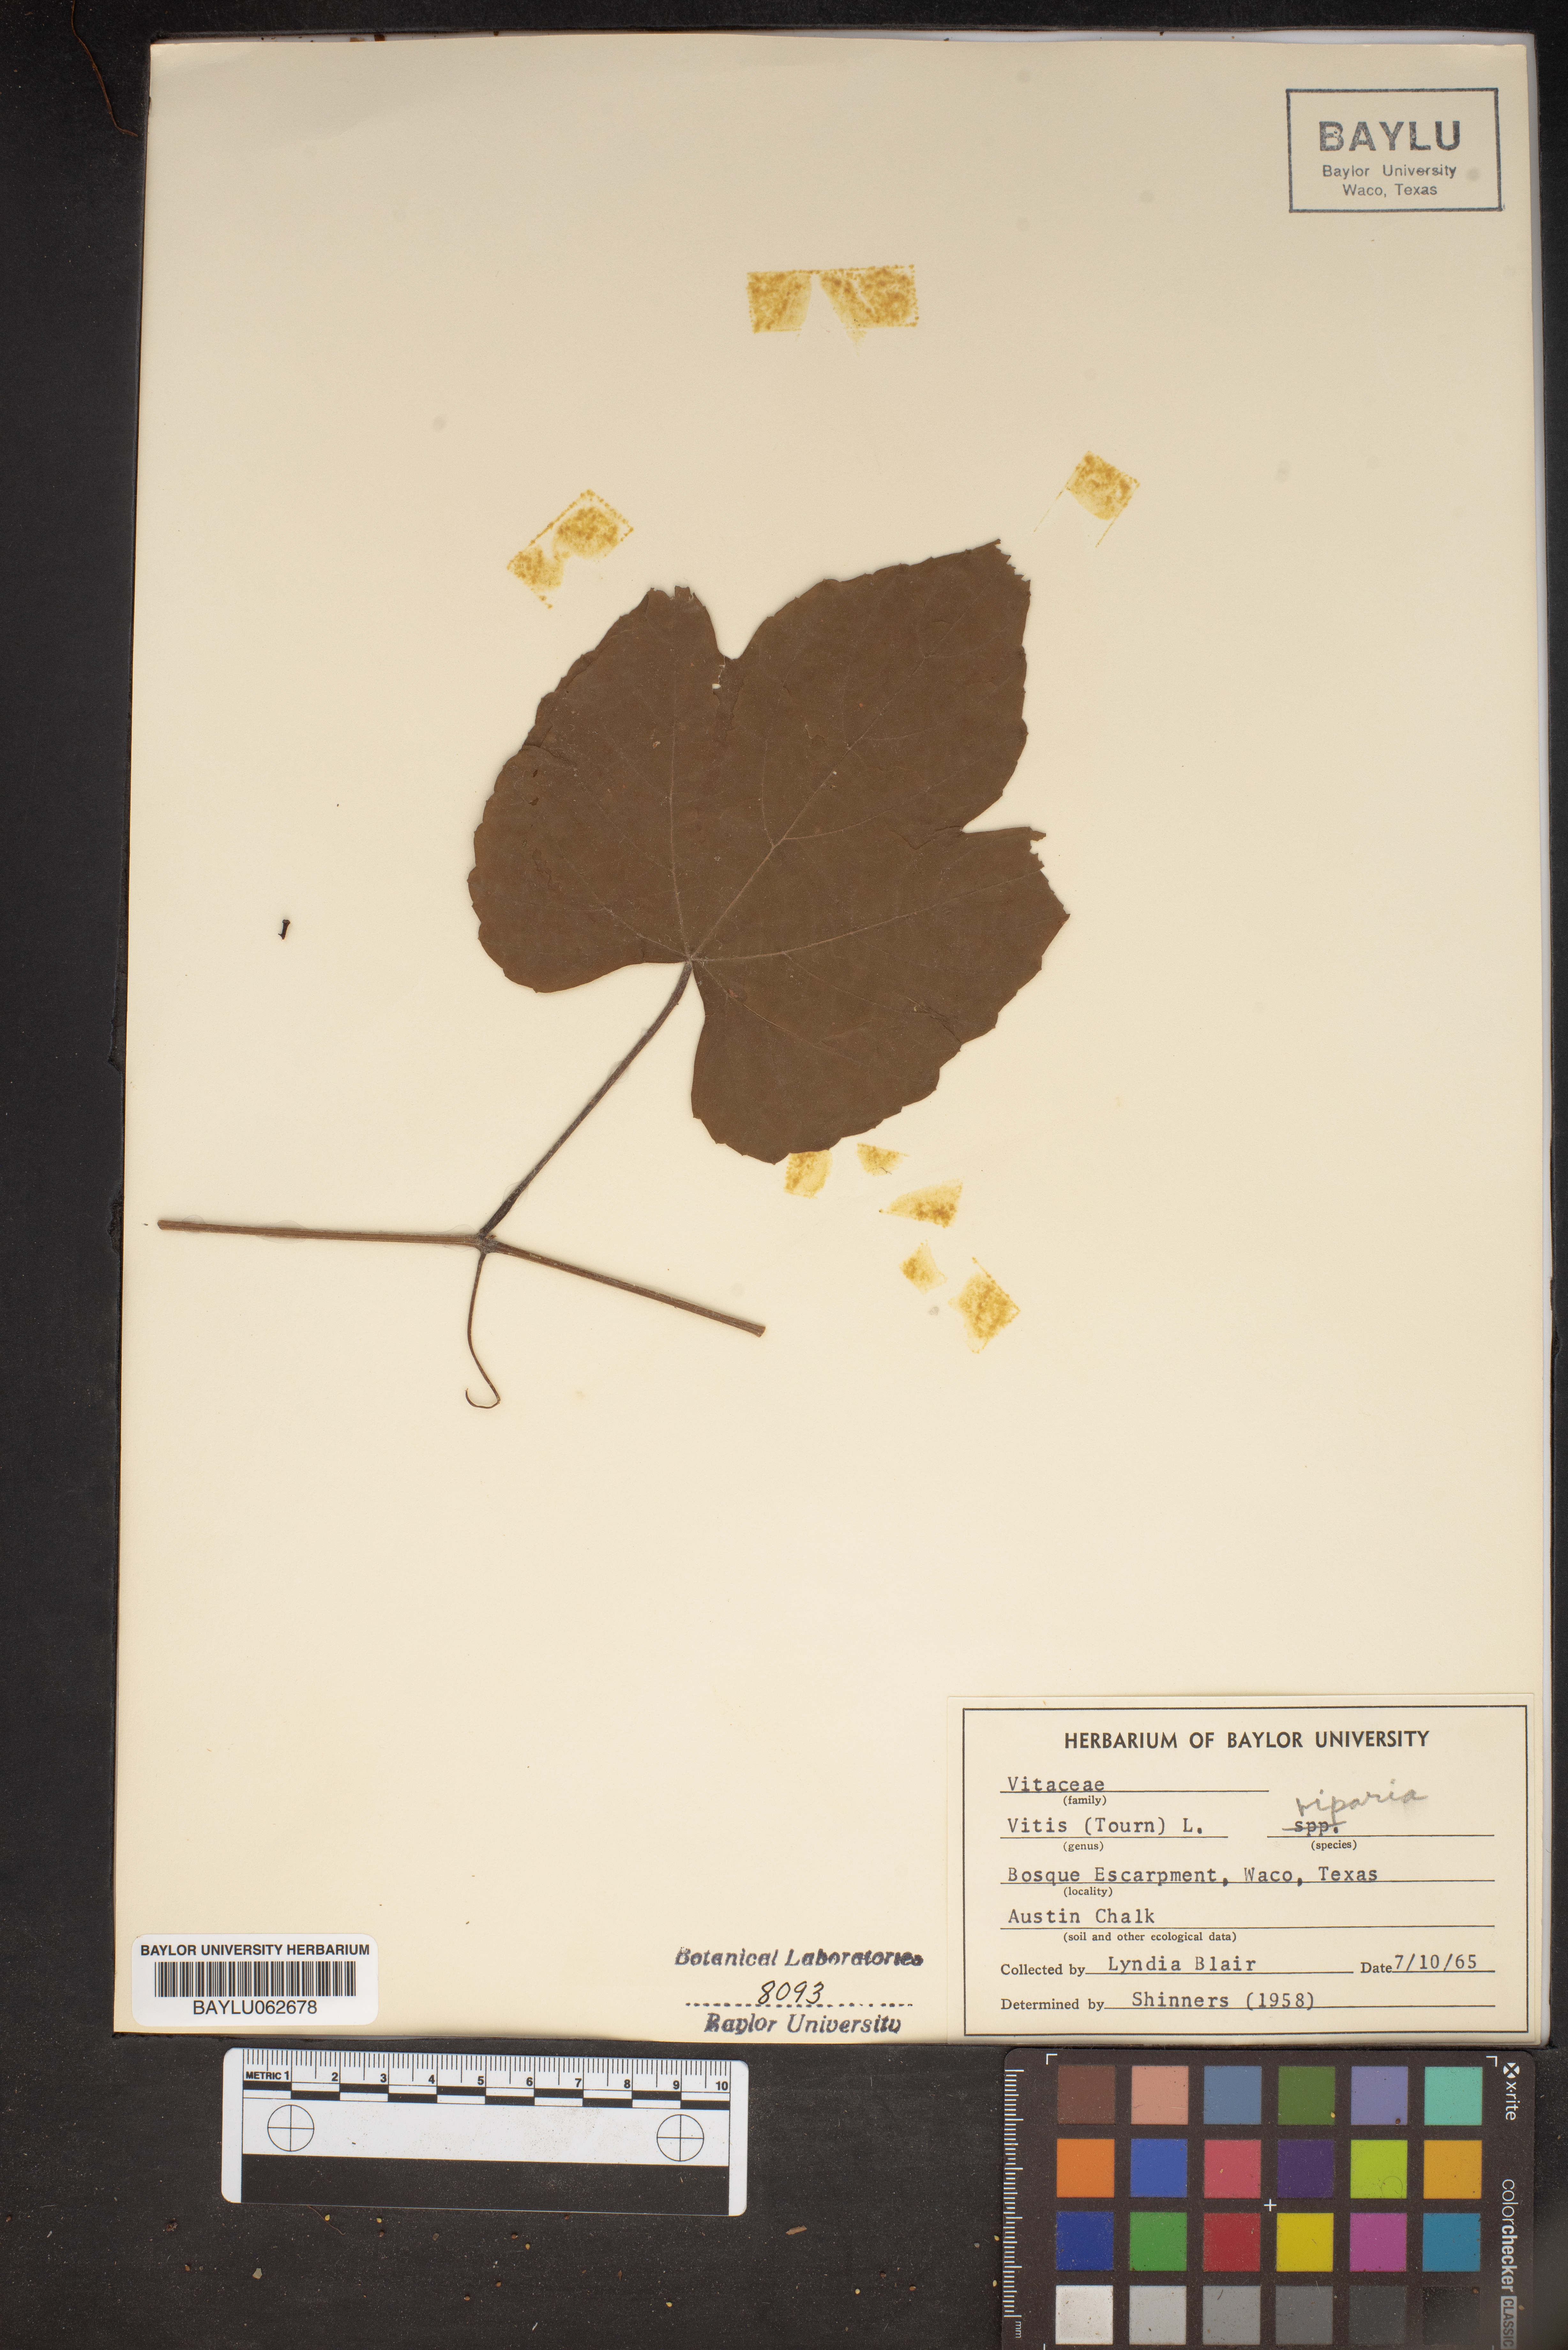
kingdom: Plantae
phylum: Tracheophyta
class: Magnoliopsida
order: Vitales
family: Vitaceae
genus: Vitis
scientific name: Vitis riparia
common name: Frost grape
